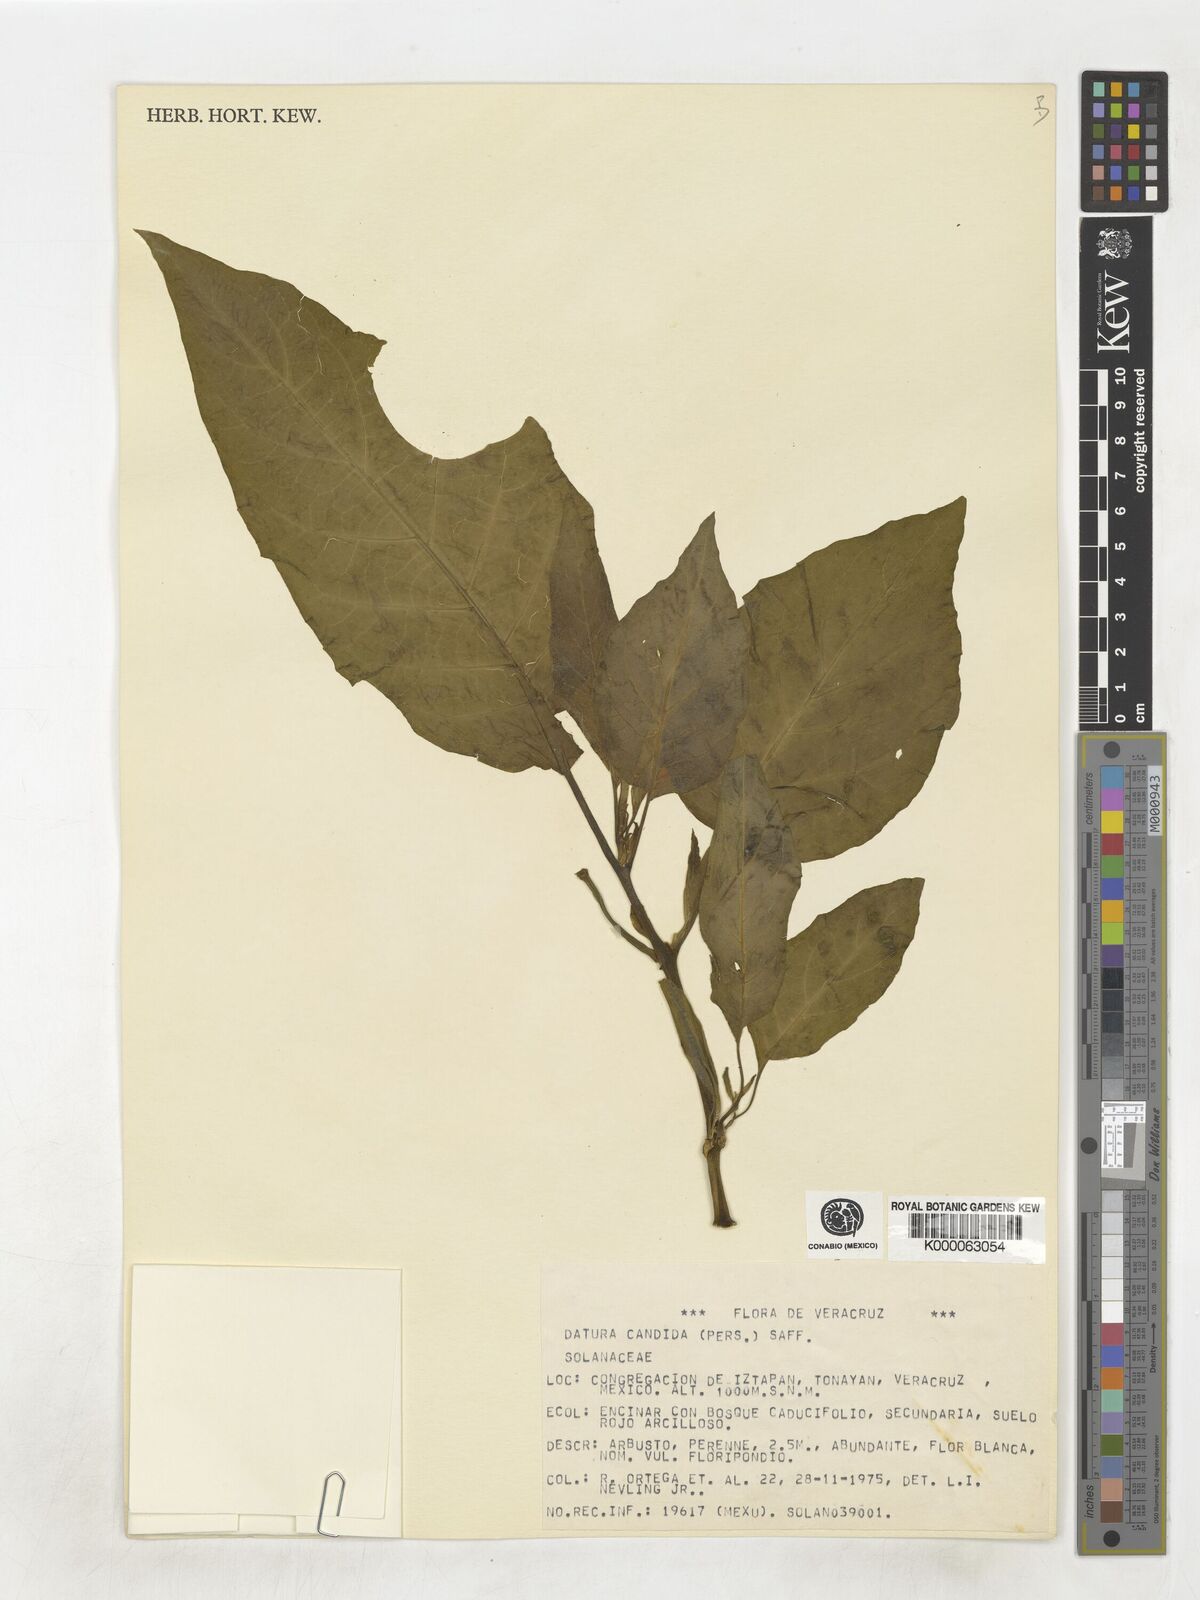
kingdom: Plantae
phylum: Tracheophyta
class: Magnoliopsida
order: Solanales
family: Solanaceae
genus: Datura
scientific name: Datura candida
